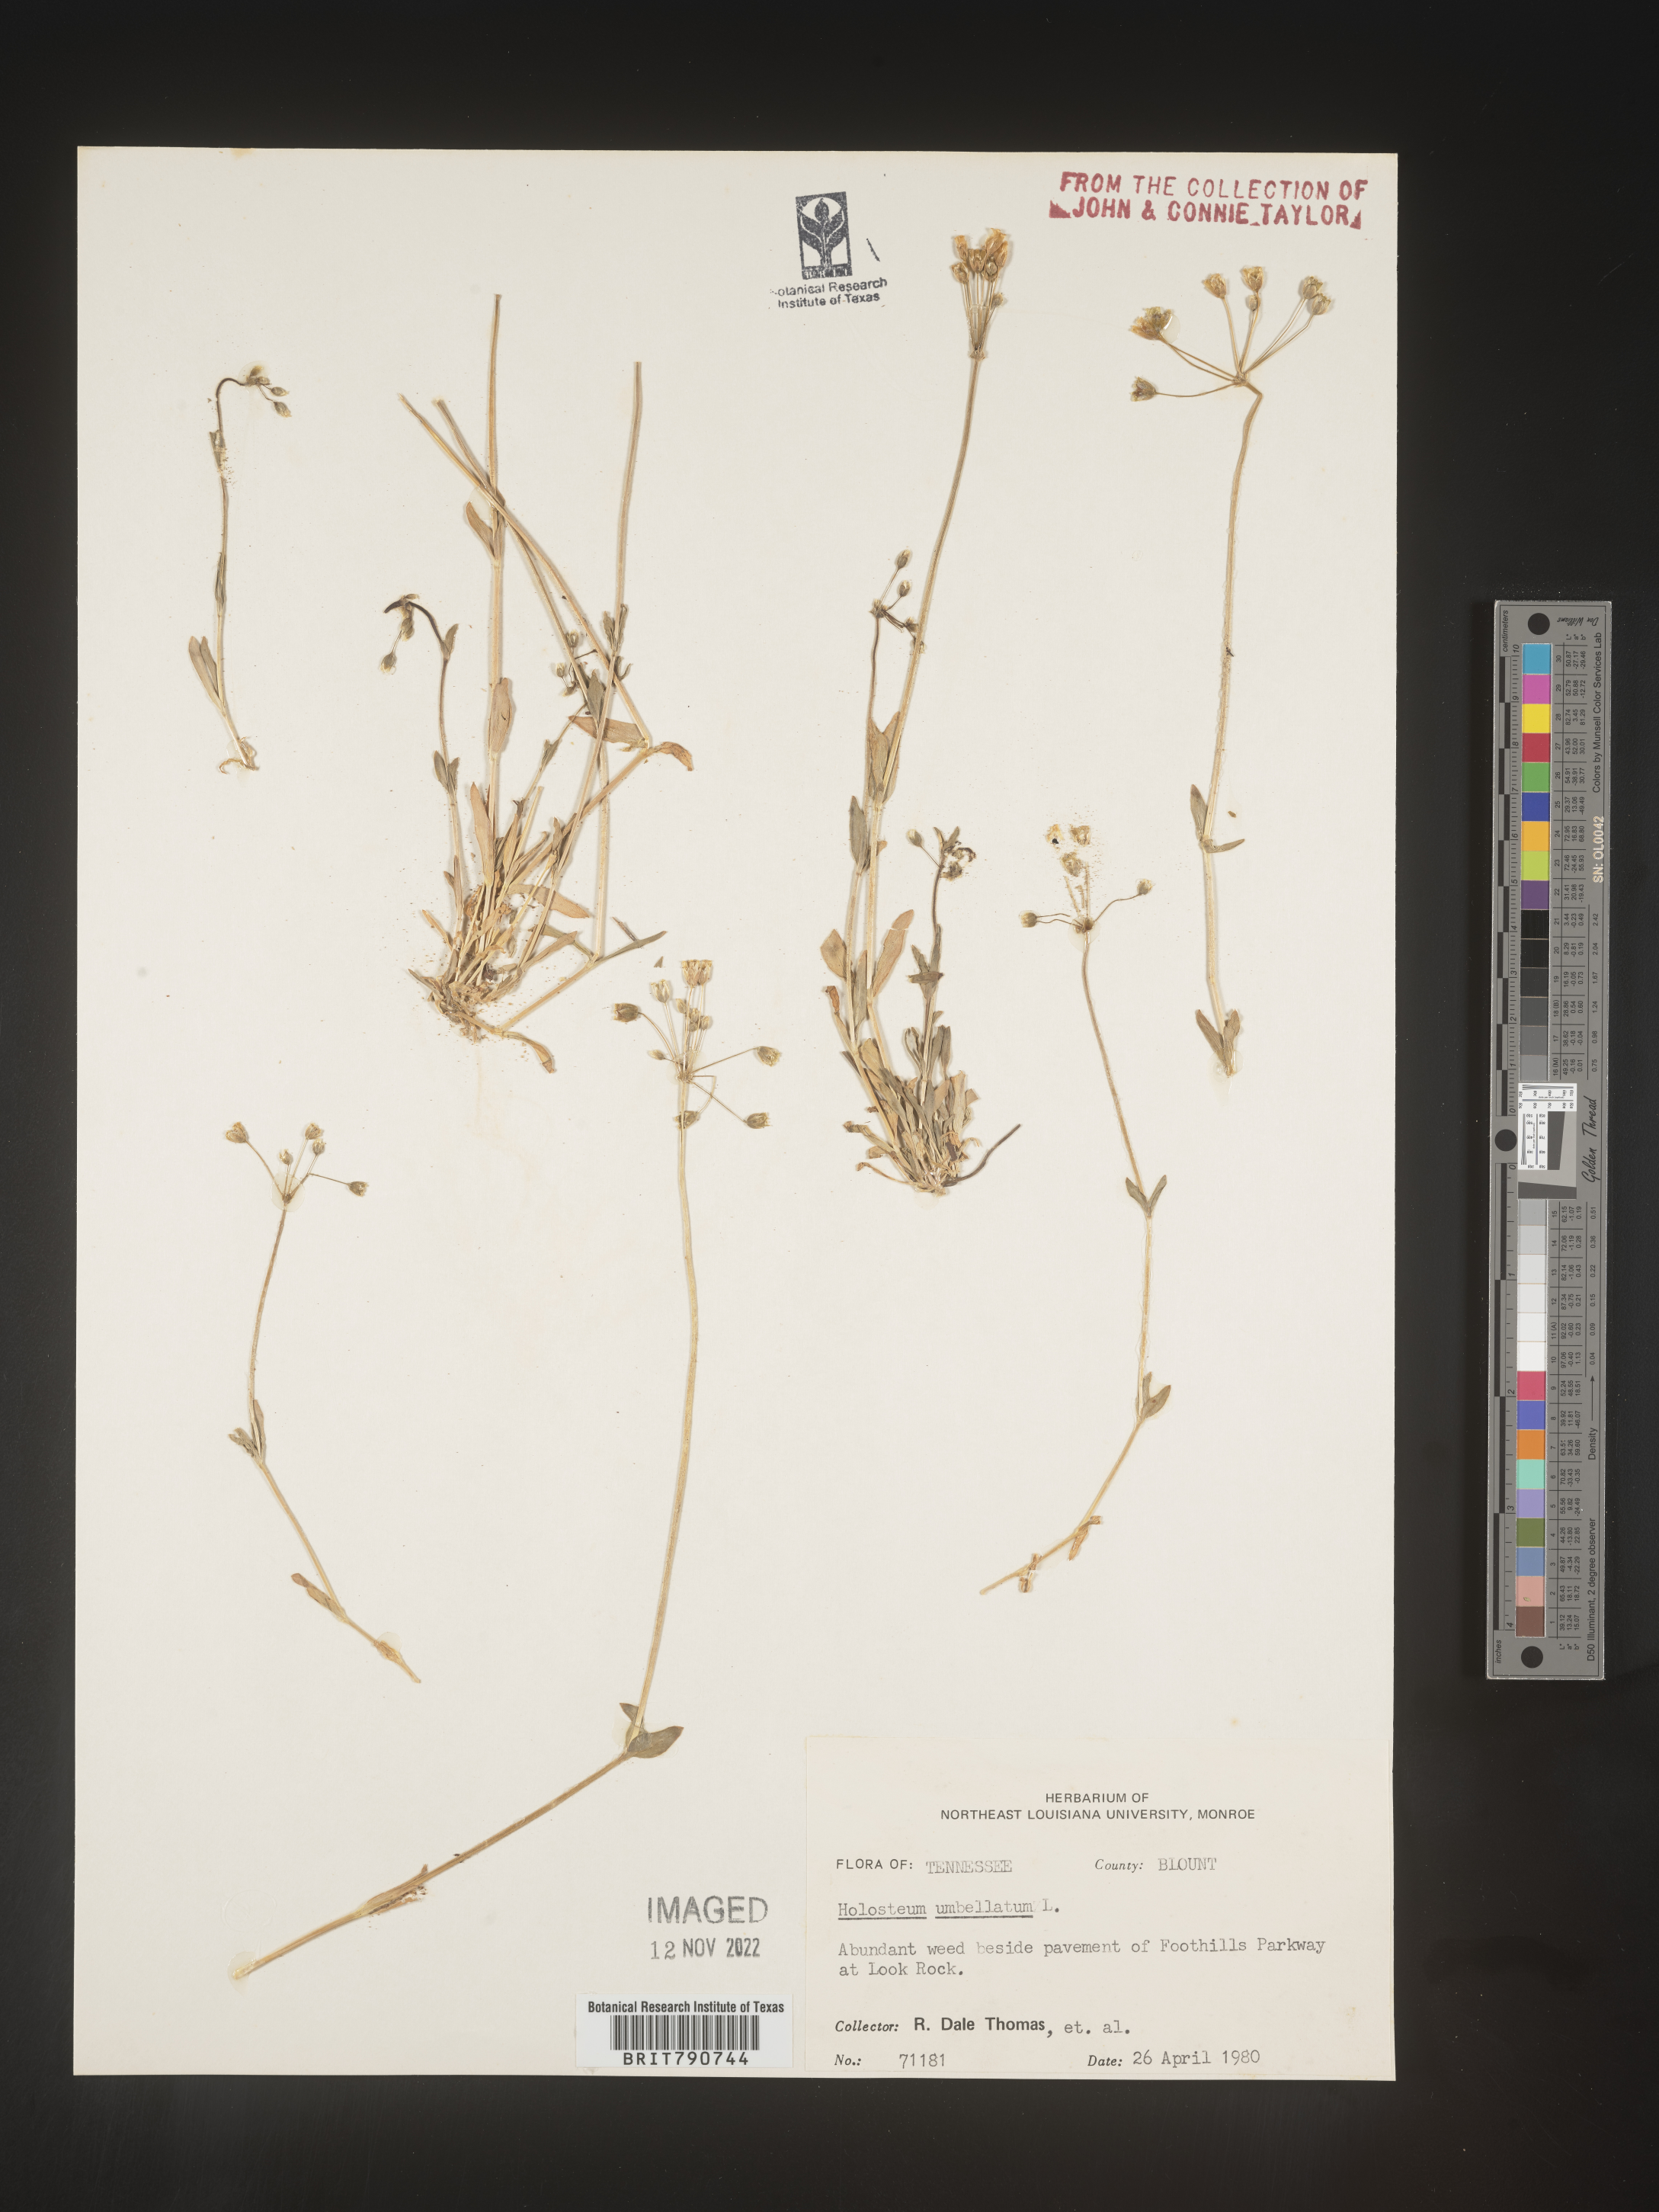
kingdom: Plantae
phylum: Tracheophyta
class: Magnoliopsida
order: Caryophyllales
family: Caryophyllaceae
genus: Holosteum
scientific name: Holosteum
